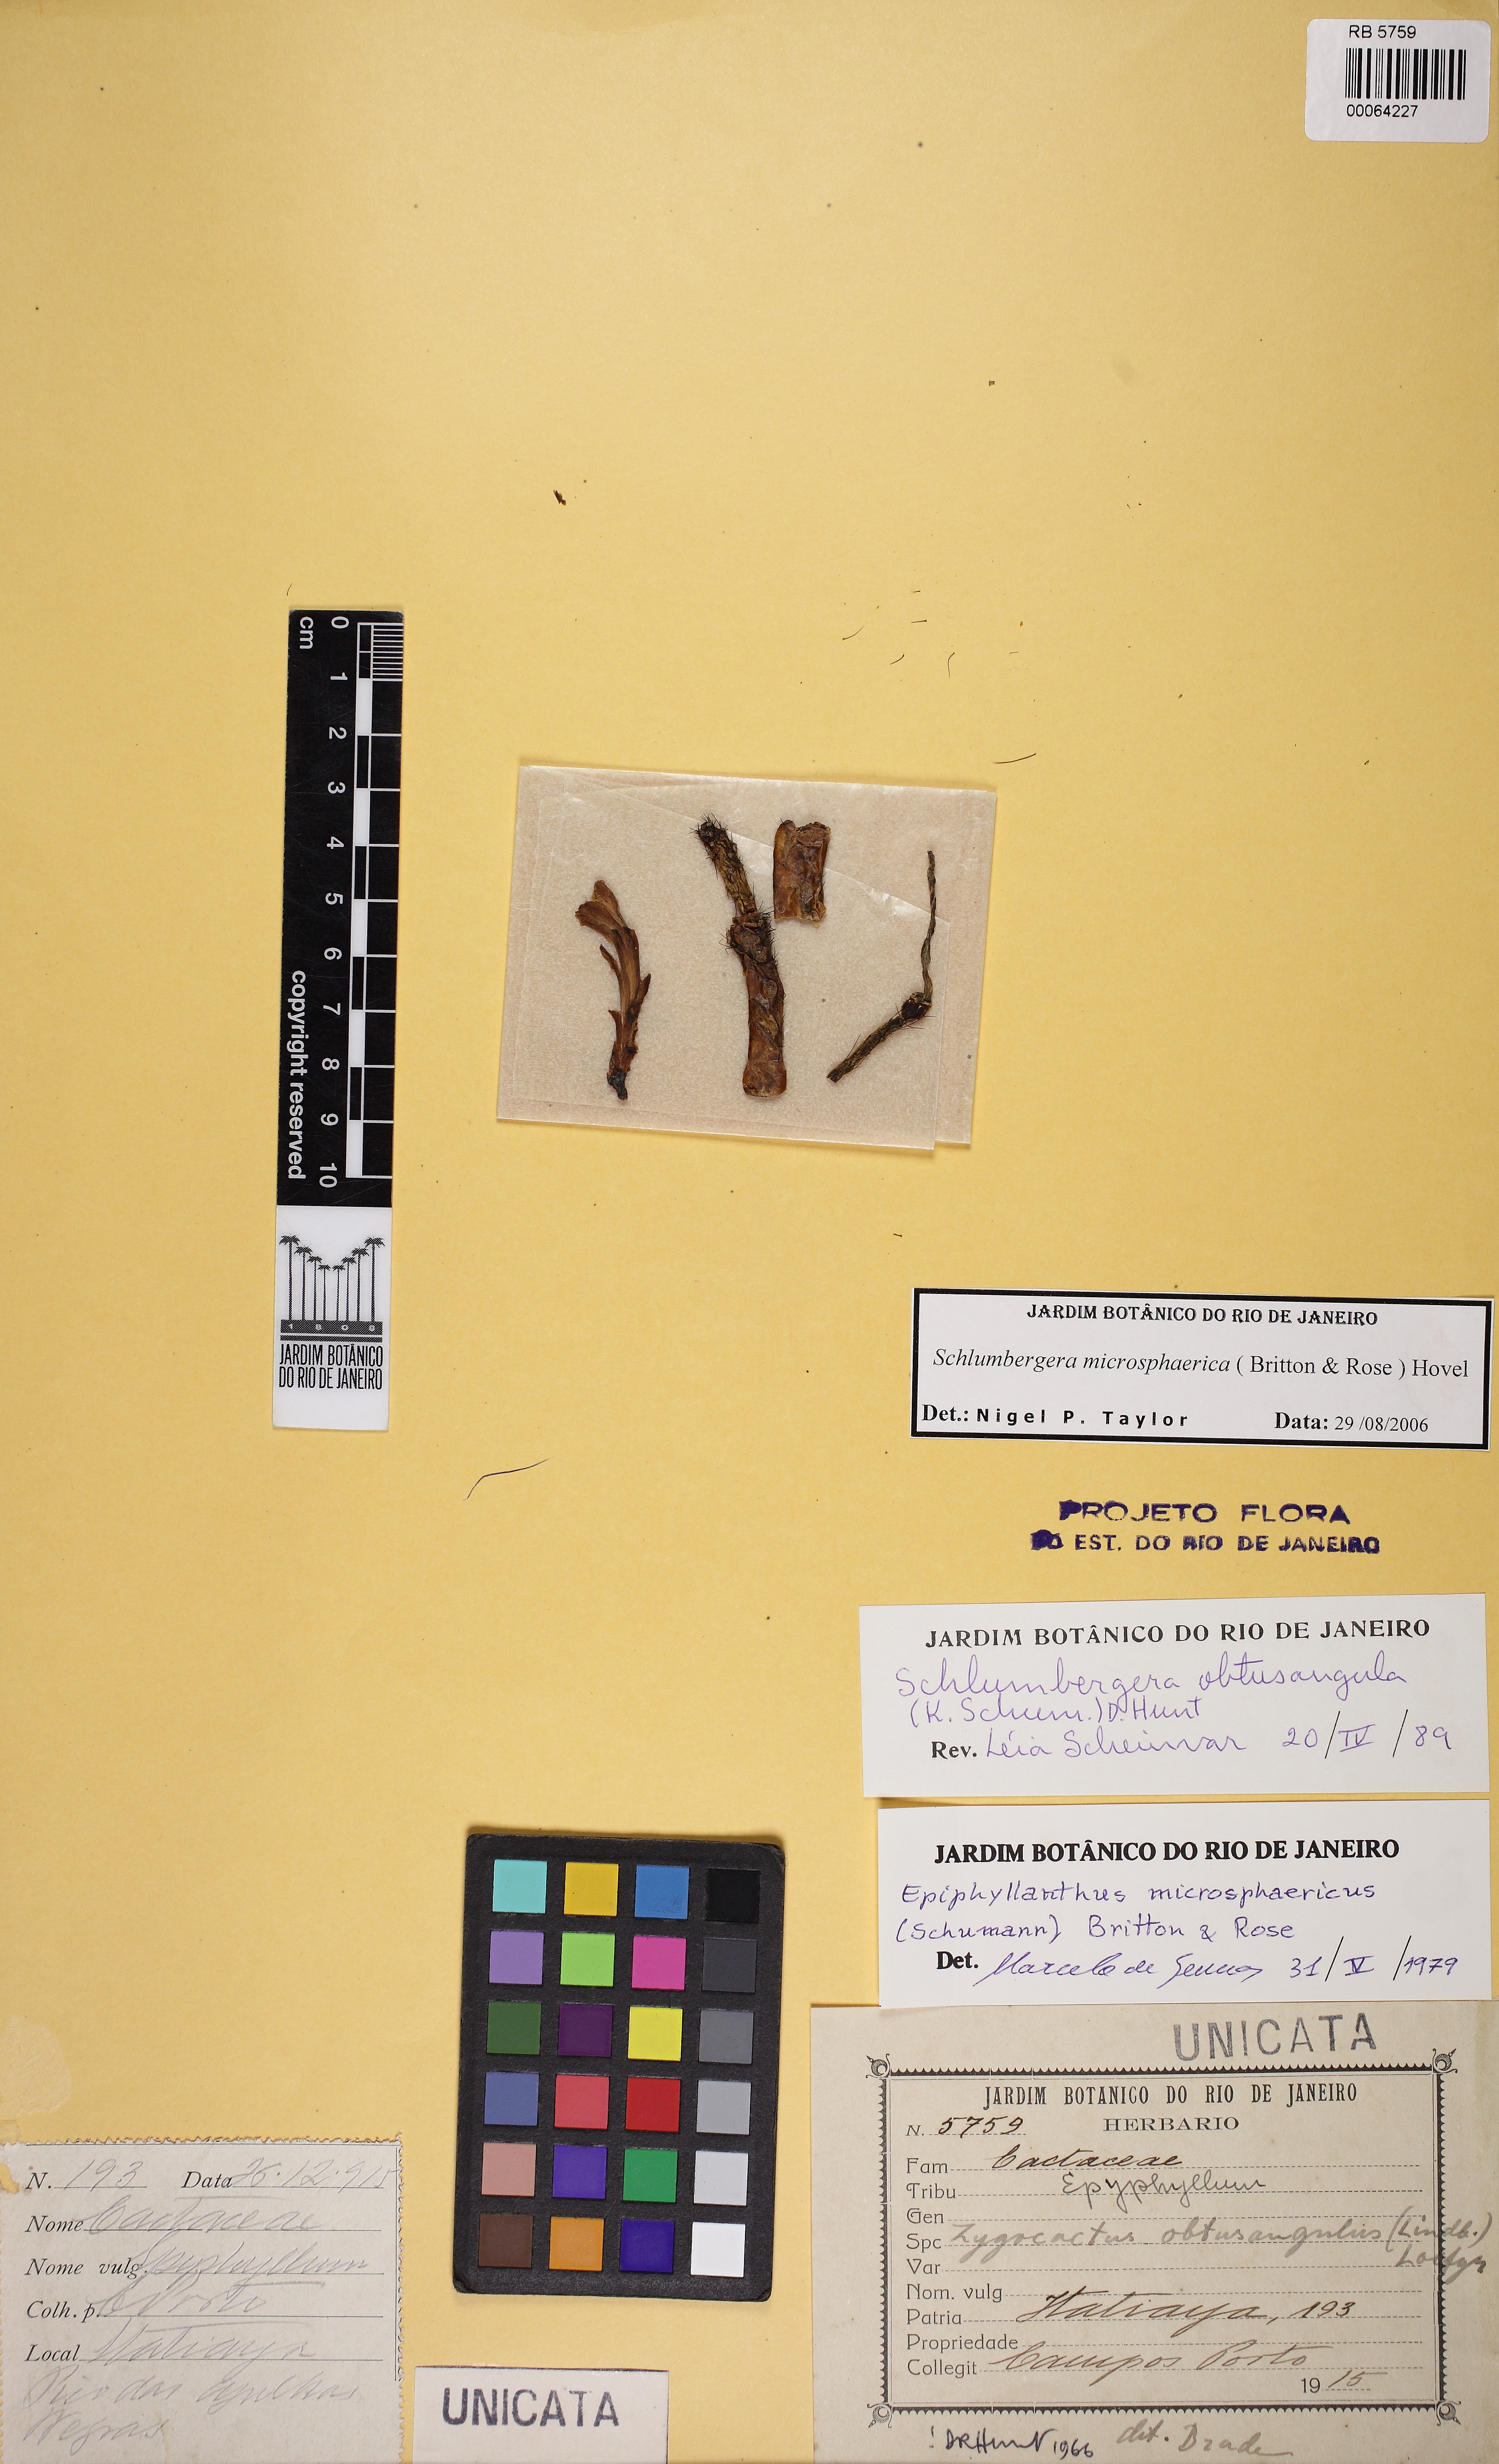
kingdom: Plantae
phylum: Tracheophyta
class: Magnoliopsida
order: Caryophyllales
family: Cactaceae
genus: Schlumbergera
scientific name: Schlumbergera microsphaerica
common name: Christmas cactus
